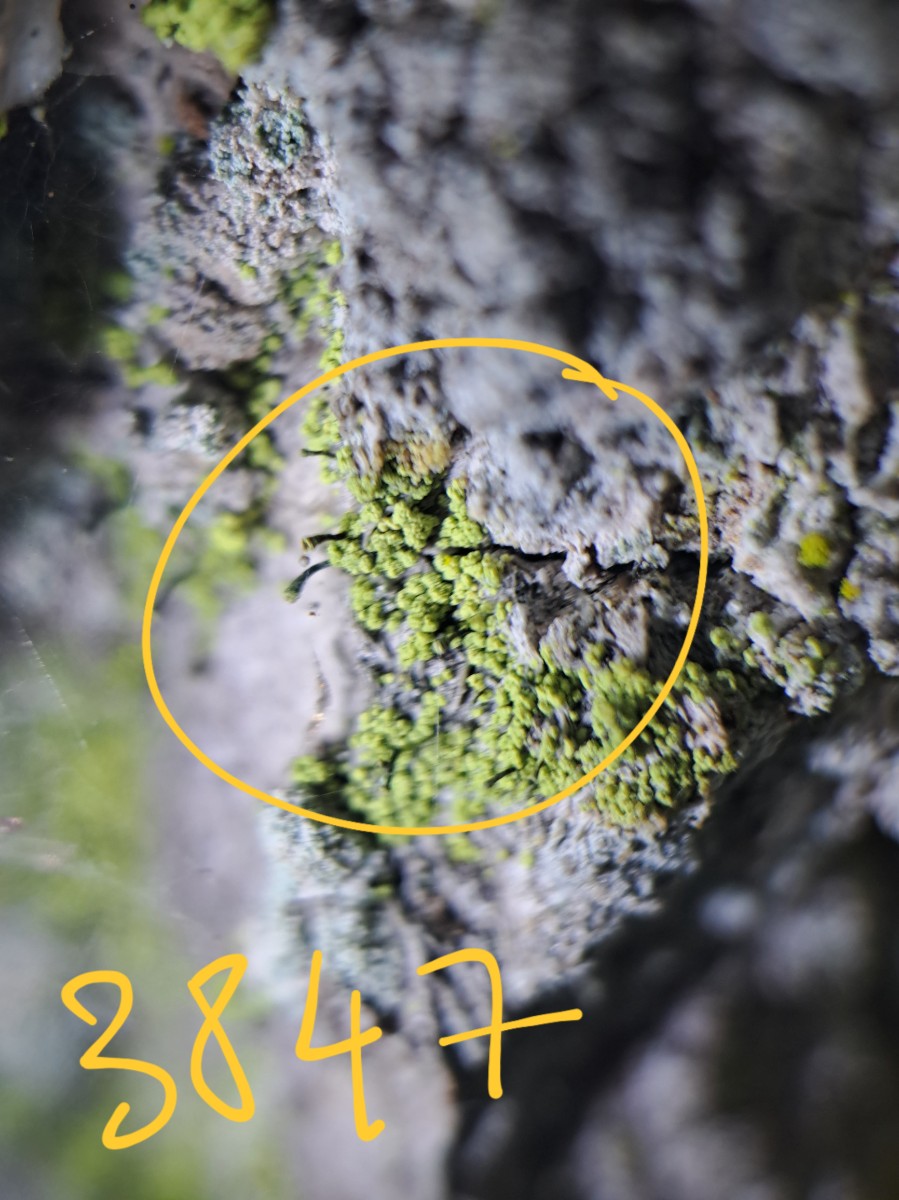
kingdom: Fungi
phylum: Ascomycota
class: Coniocybomycetes
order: Coniocybales
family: Coniocybaceae
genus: Chaenotheca
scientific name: Chaenotheca chrysocephala
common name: citrongul knappenålslav
